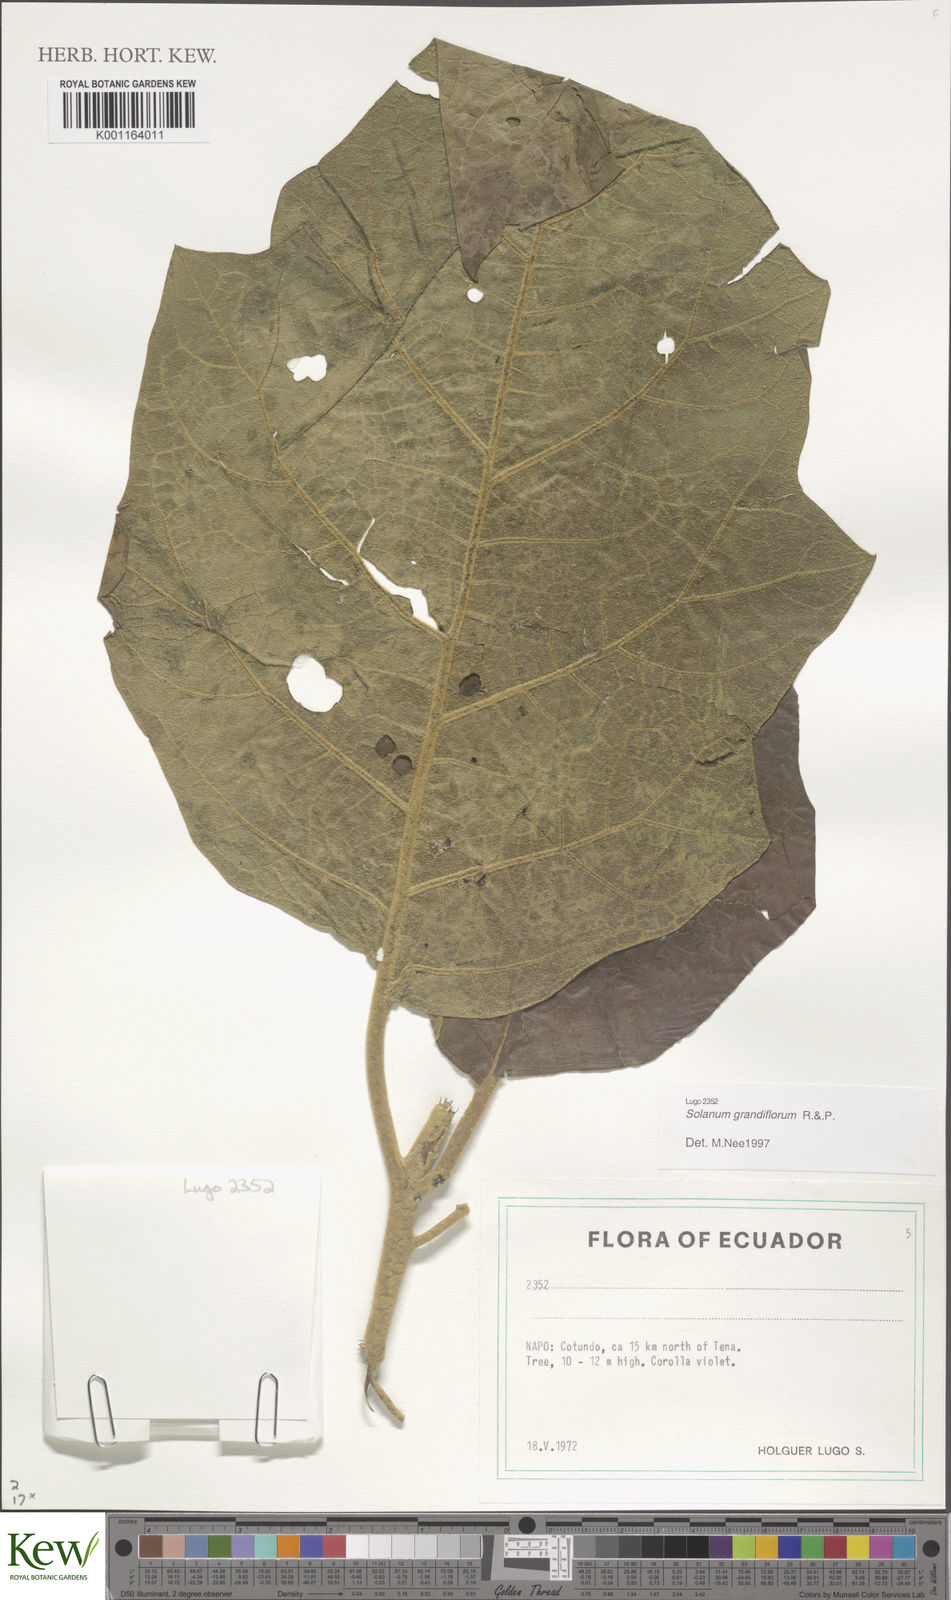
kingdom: Plantae
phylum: Tracheophyta
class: Magnoliopsida
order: Solanales
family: Solanaceae
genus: Solanum
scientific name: Solanum grandiflorum
